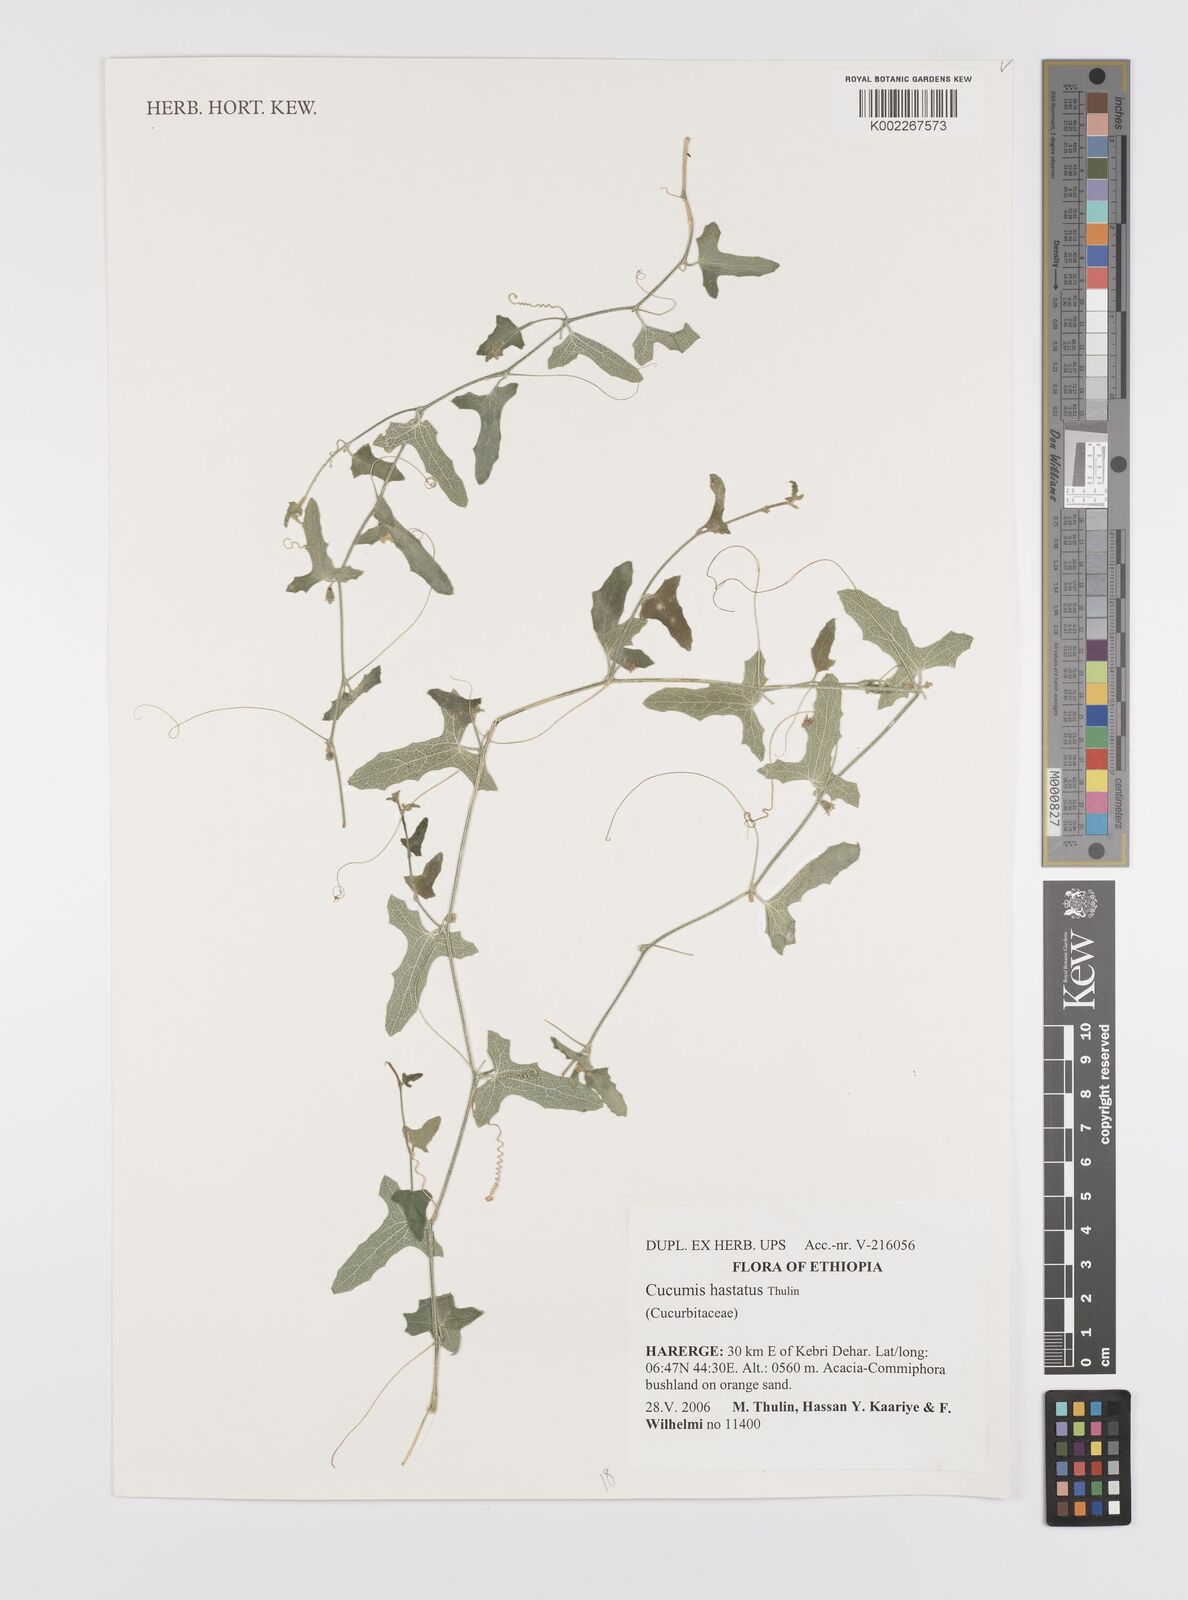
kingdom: Plantae
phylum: Tracheophyta
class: Magnoliopsida
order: Cucurbitales
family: Cucurbitaceae
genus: Cucumis
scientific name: Cucumis hastatus
